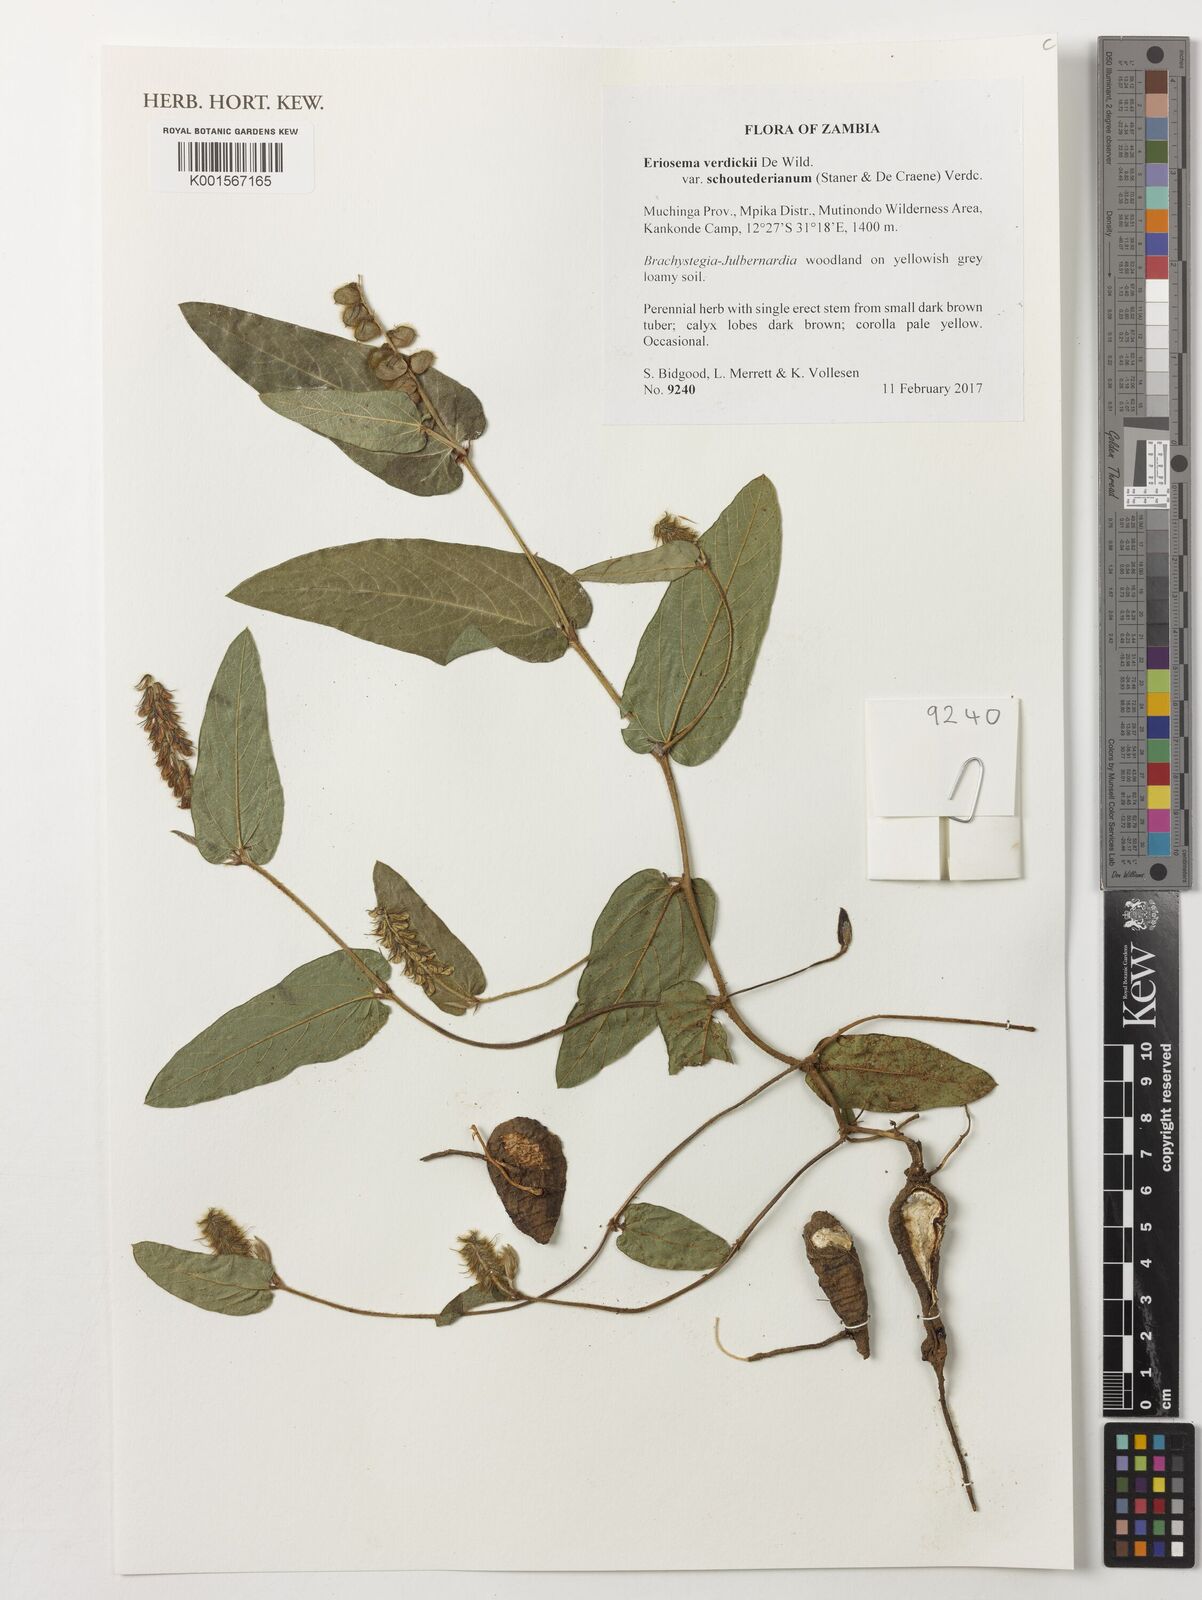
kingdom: Plantae
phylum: Tracheophyta
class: Magnoliopsida
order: Fabales
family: Fabaceae
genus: Eriosema
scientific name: Eriosema verdickii
